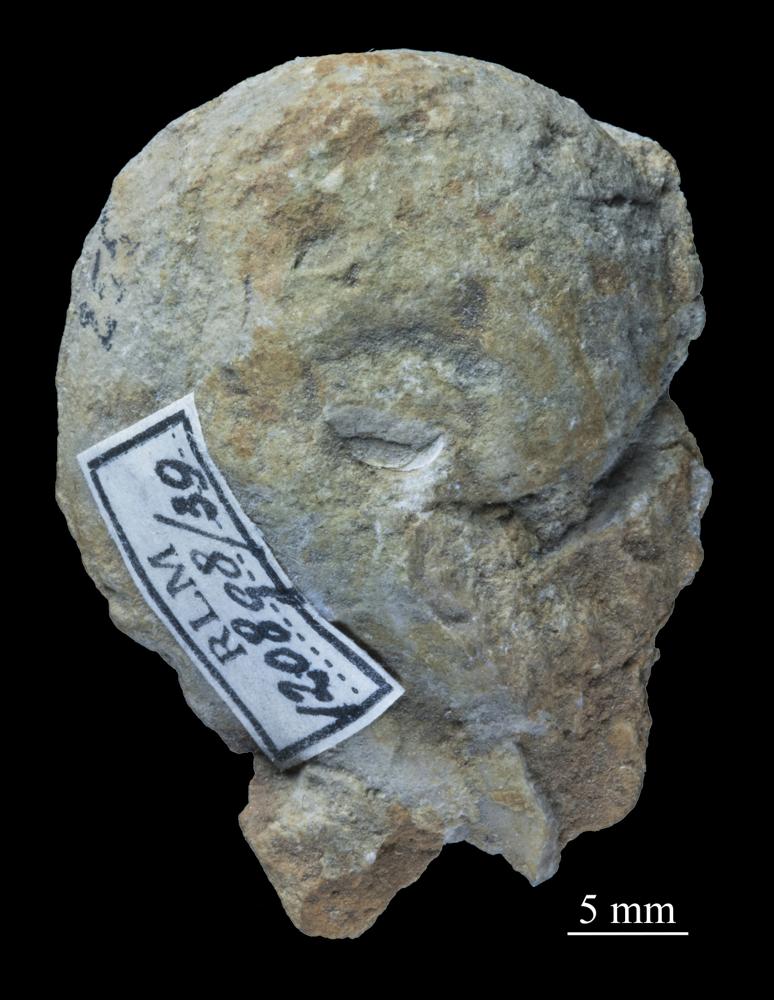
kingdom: Animalia
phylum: Mollusca
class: Gastropoda
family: Bellerophontidae
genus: Cymbularia
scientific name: Cymbularia galeata
